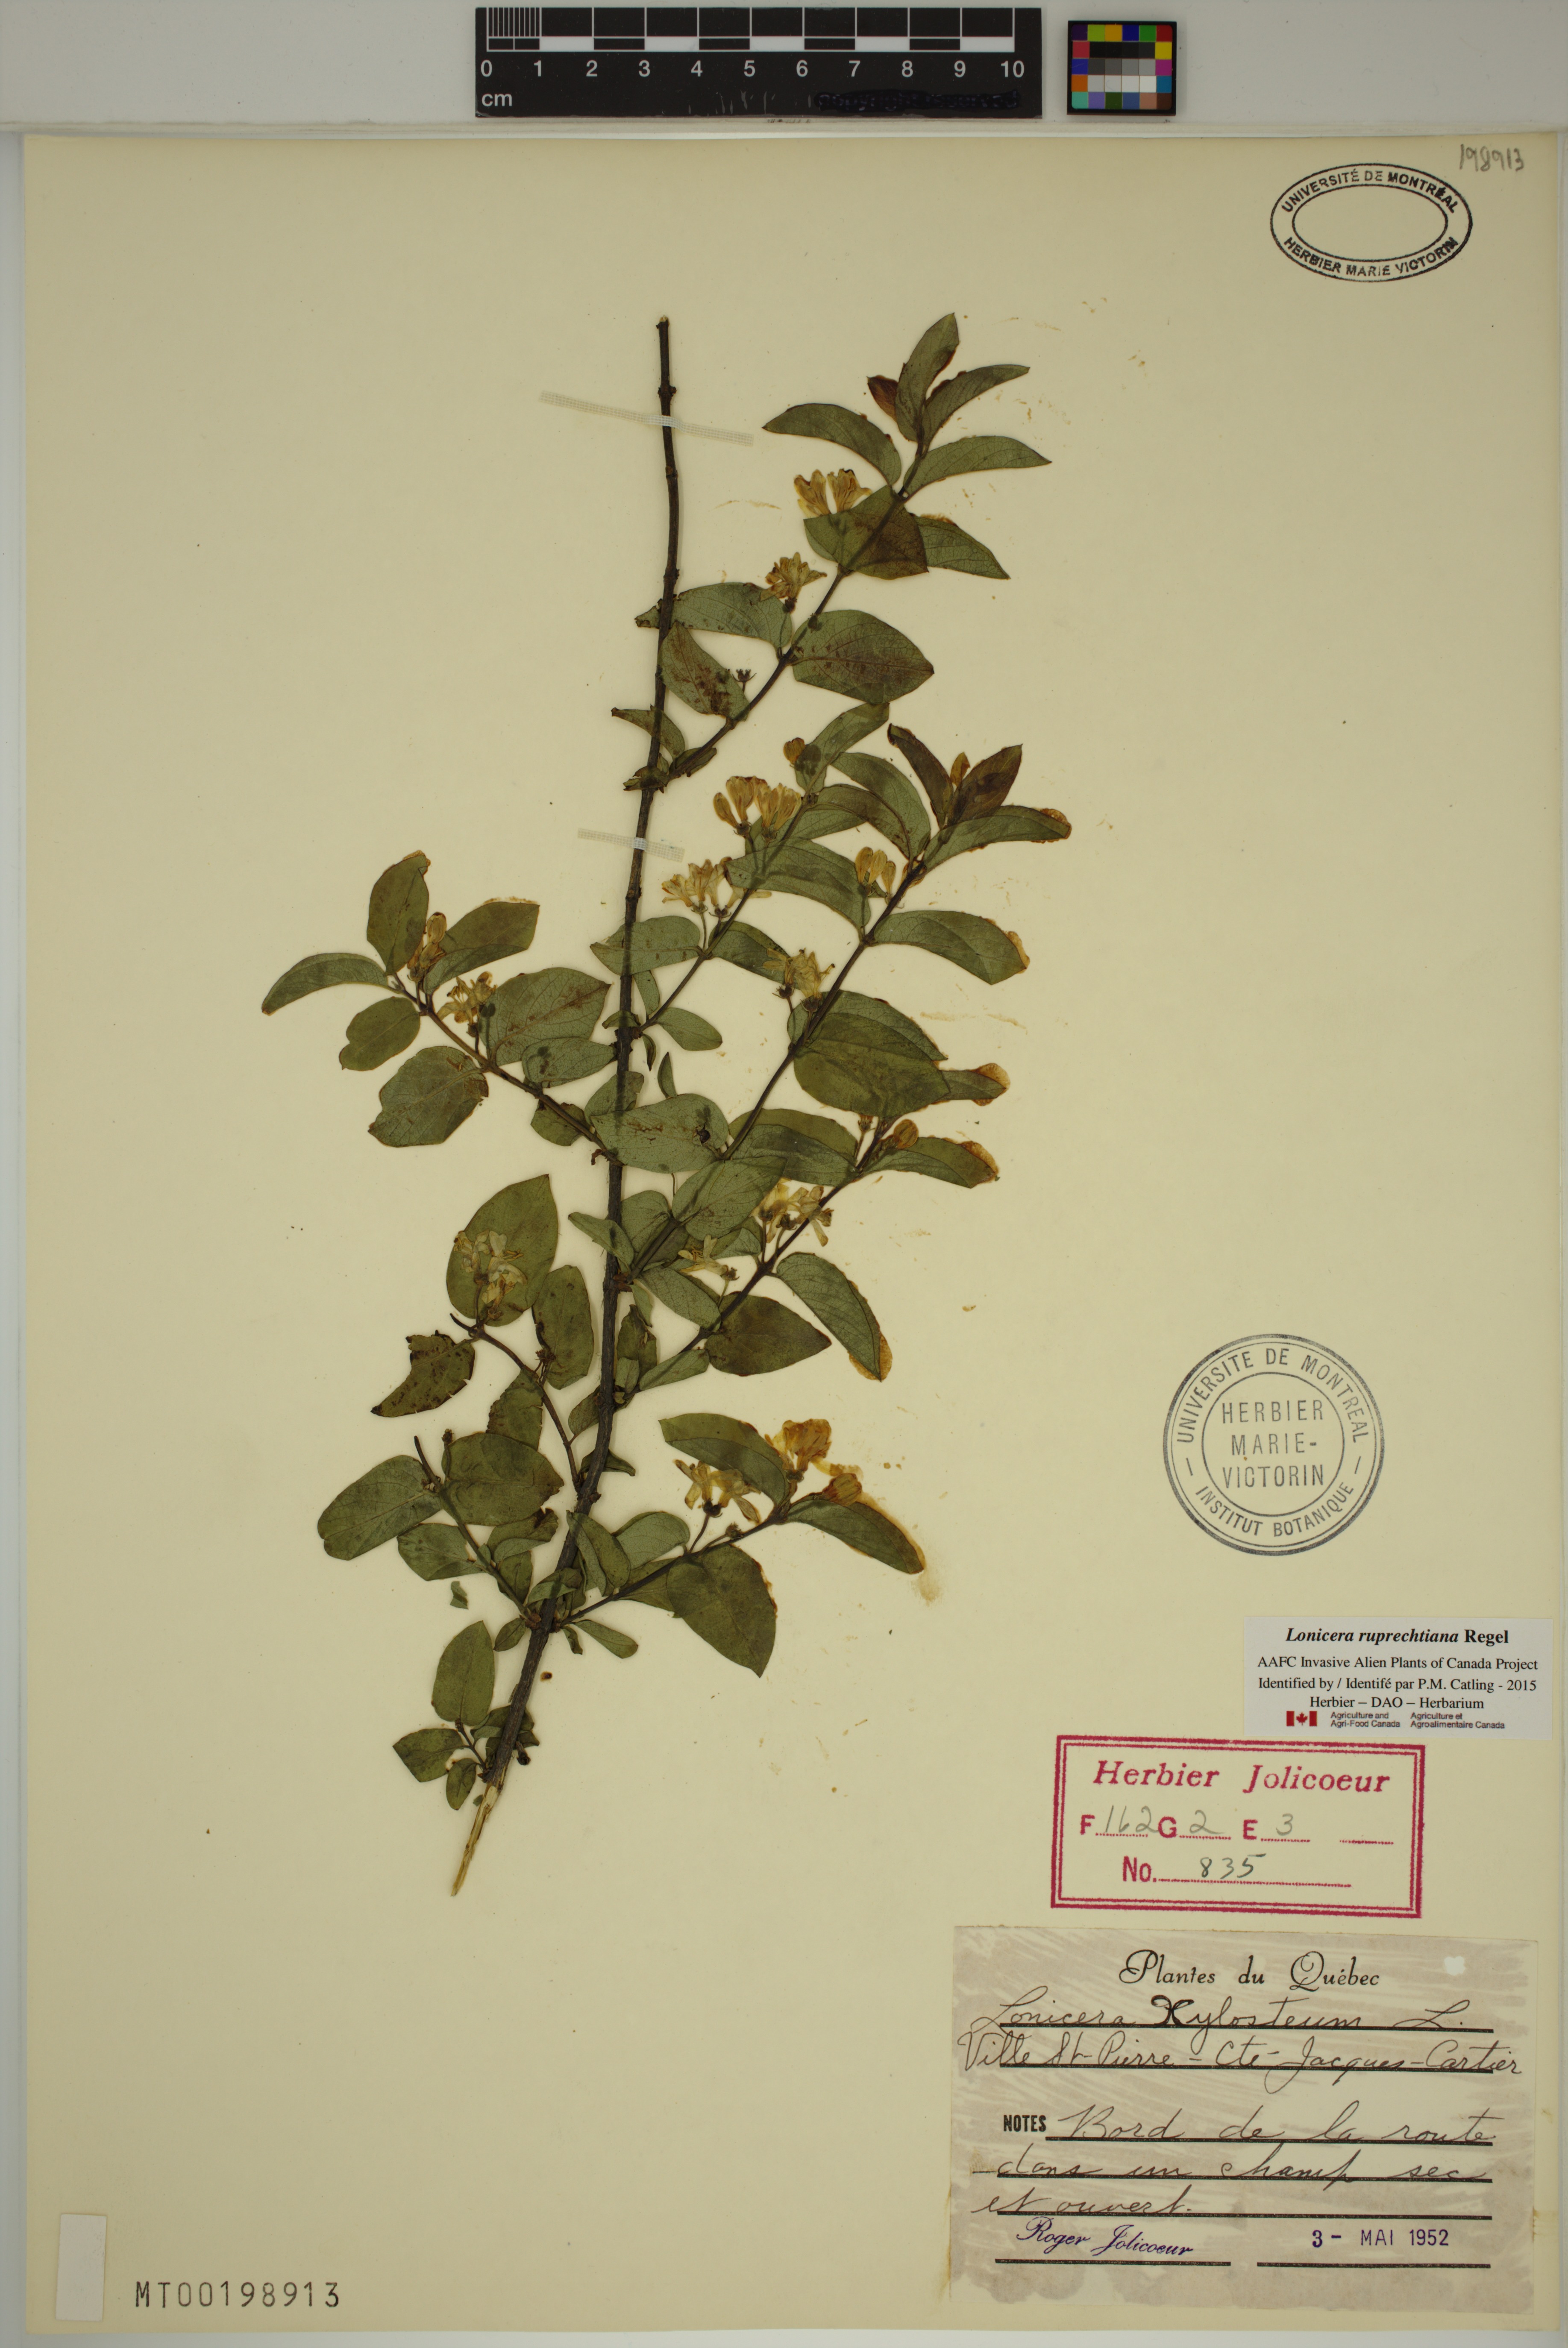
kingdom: Plantae
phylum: Tracheophyta
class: Magnoliopsida
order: Dipsacales
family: Caprifoliaceae
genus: Lonicera
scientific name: Lonicera ruprechtiana
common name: Manchurian honeysuckle
